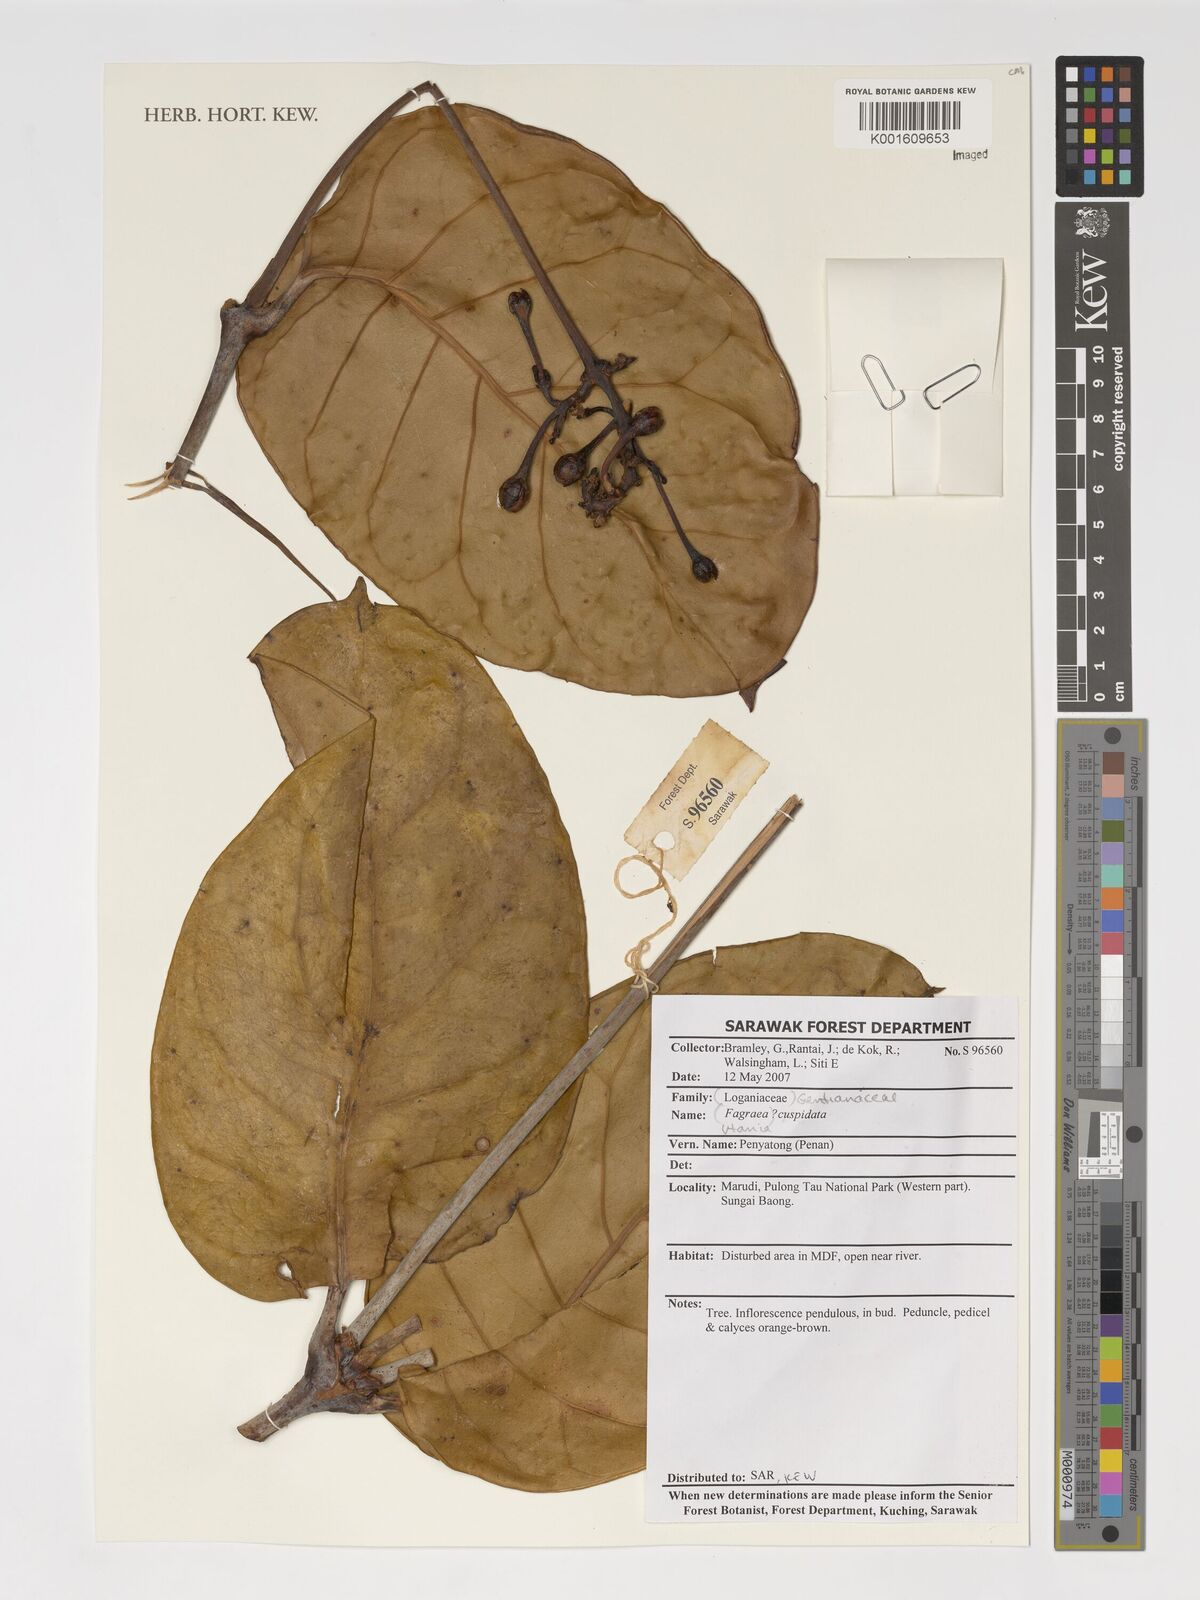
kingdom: Plantae
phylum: Tracheophyta
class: Magnoliopsida
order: Gentianales
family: Gentianaceae
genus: Utania
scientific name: Utania cuspidata
